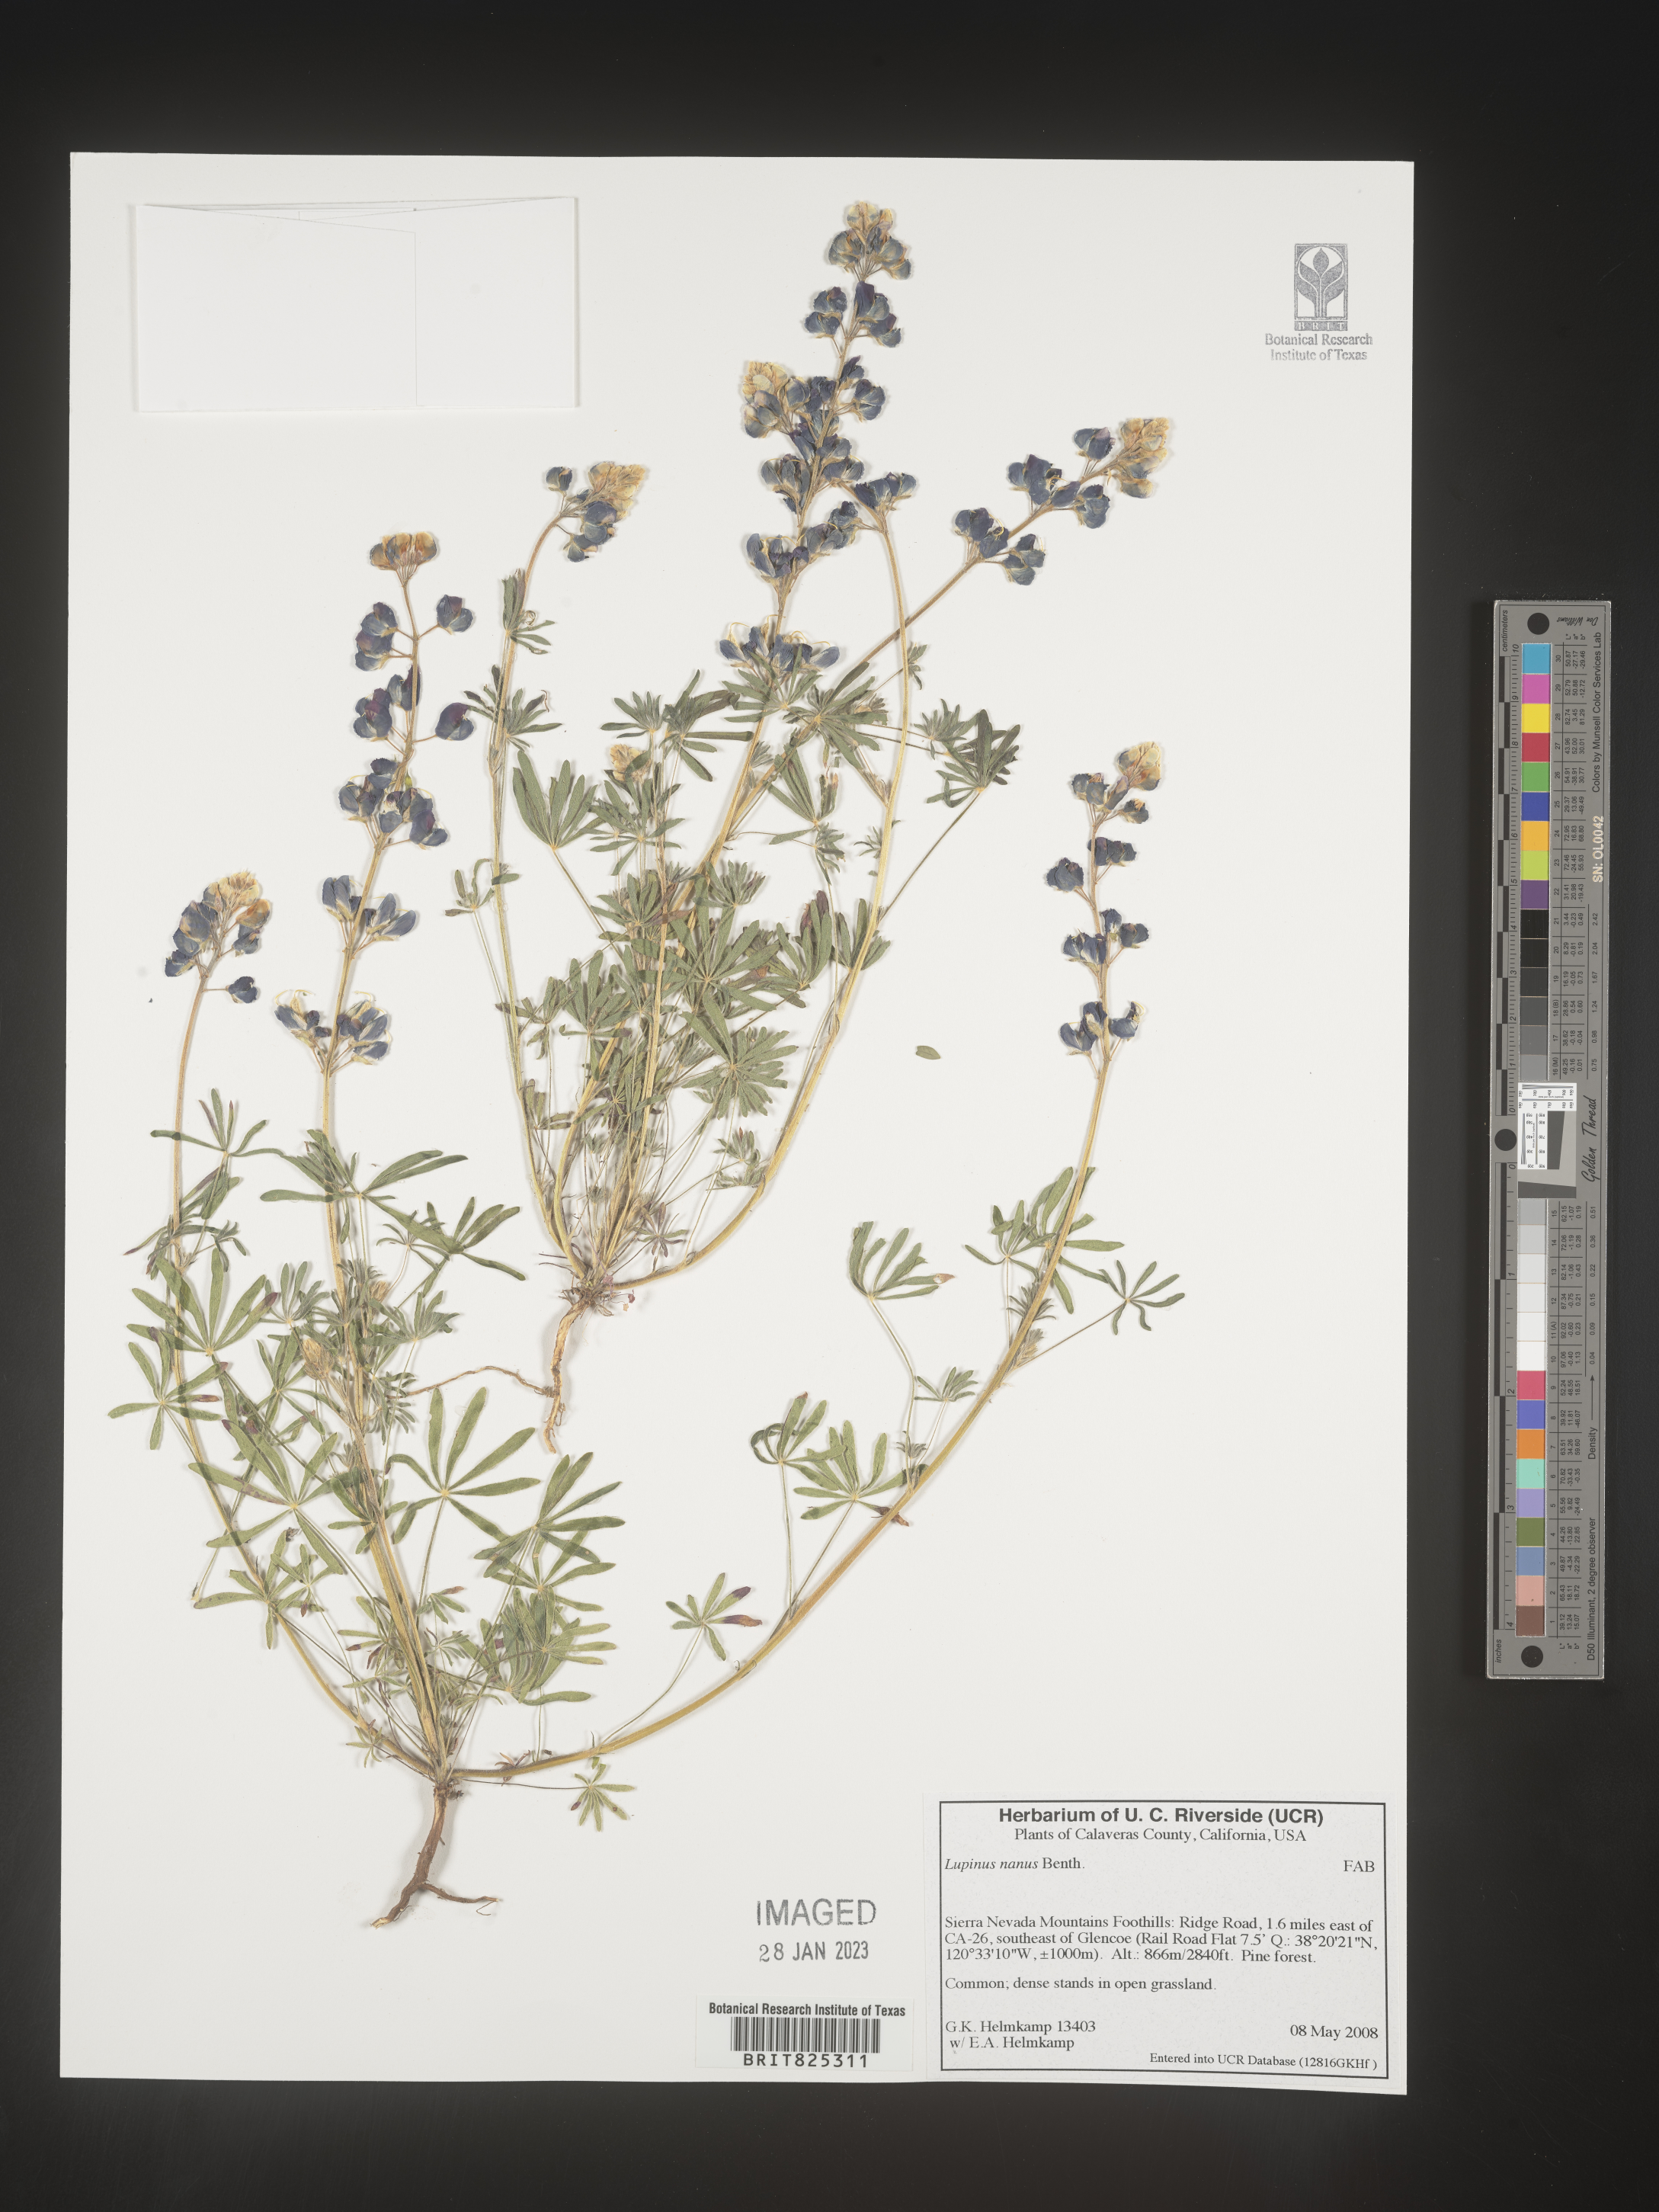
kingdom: Plantae
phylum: Tracheophyta
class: Magnoliopsida
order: Fabales
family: Fabaceae
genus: Lupinus
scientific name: Lupinus nanus
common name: Orean blue lupin
